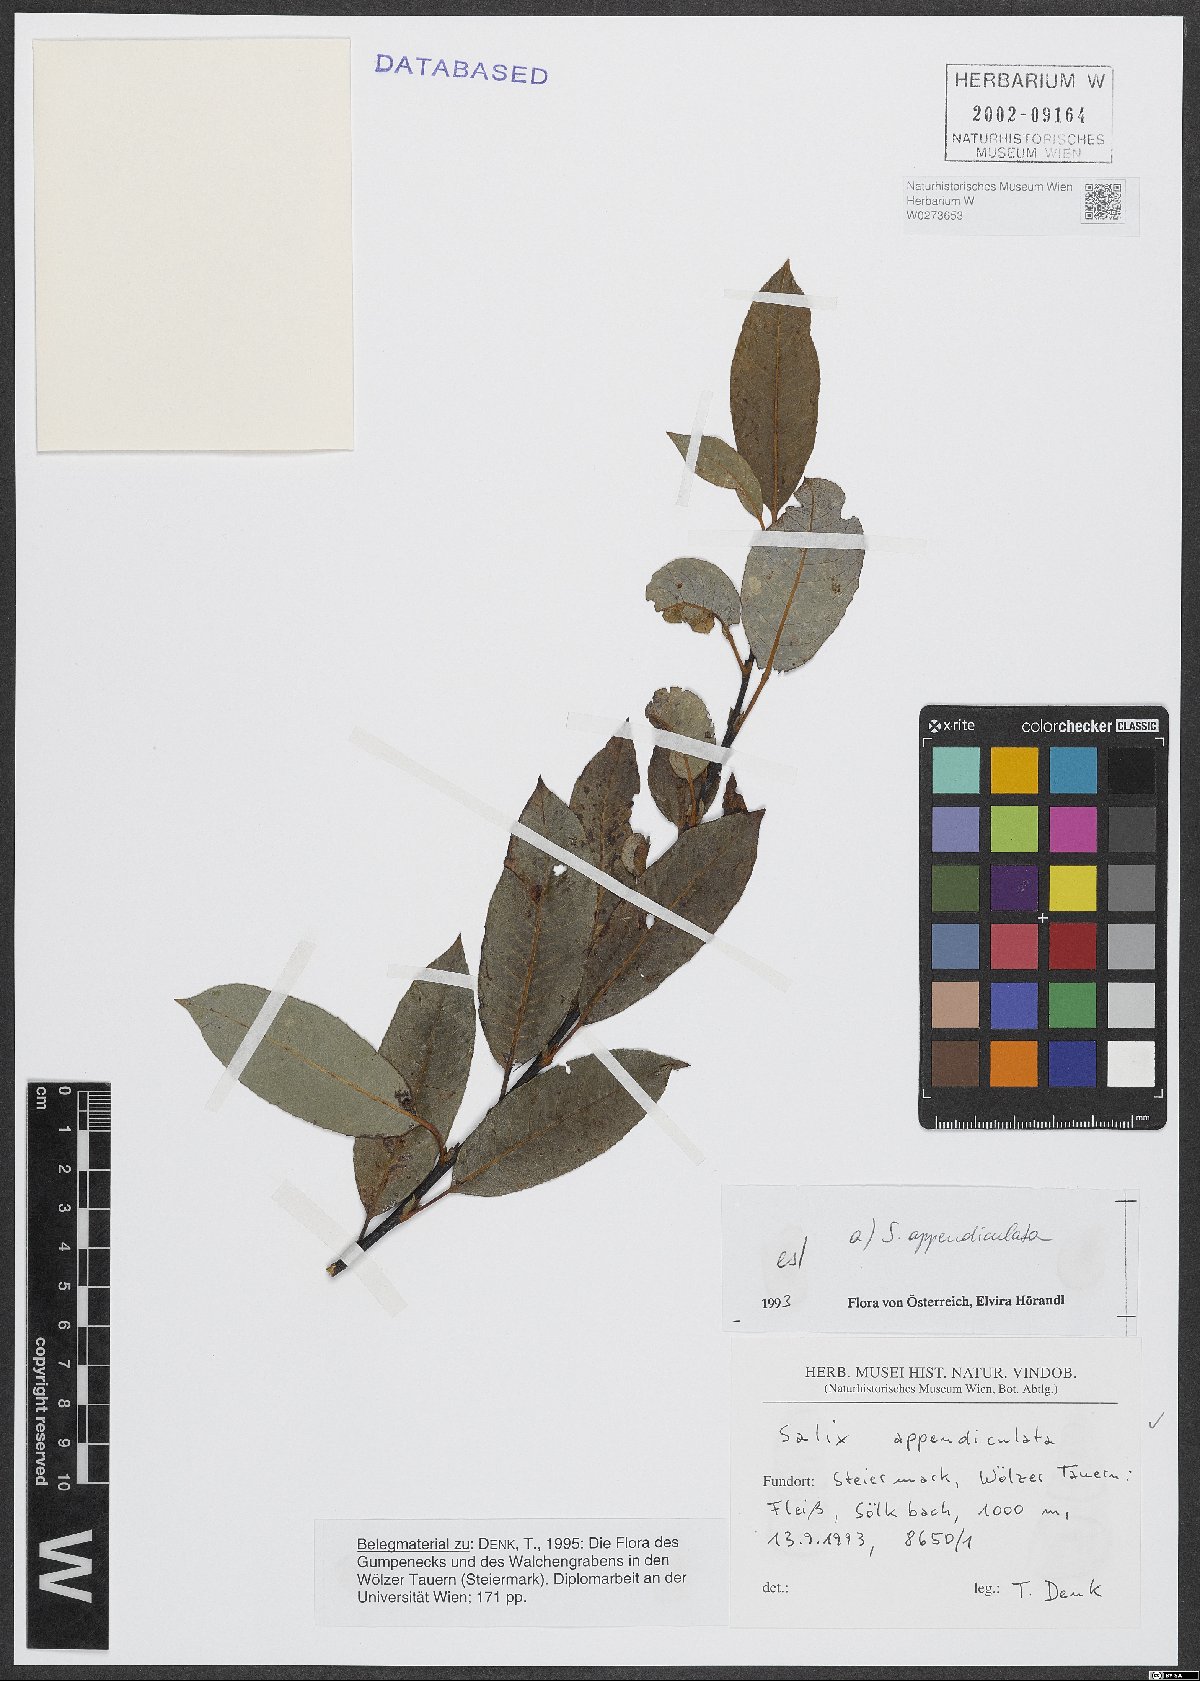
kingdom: Plantae
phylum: Tracheophyta
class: Magnoliopsida
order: Malpighiales
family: Salicaceae
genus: Salix
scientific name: Salix appendiculata
